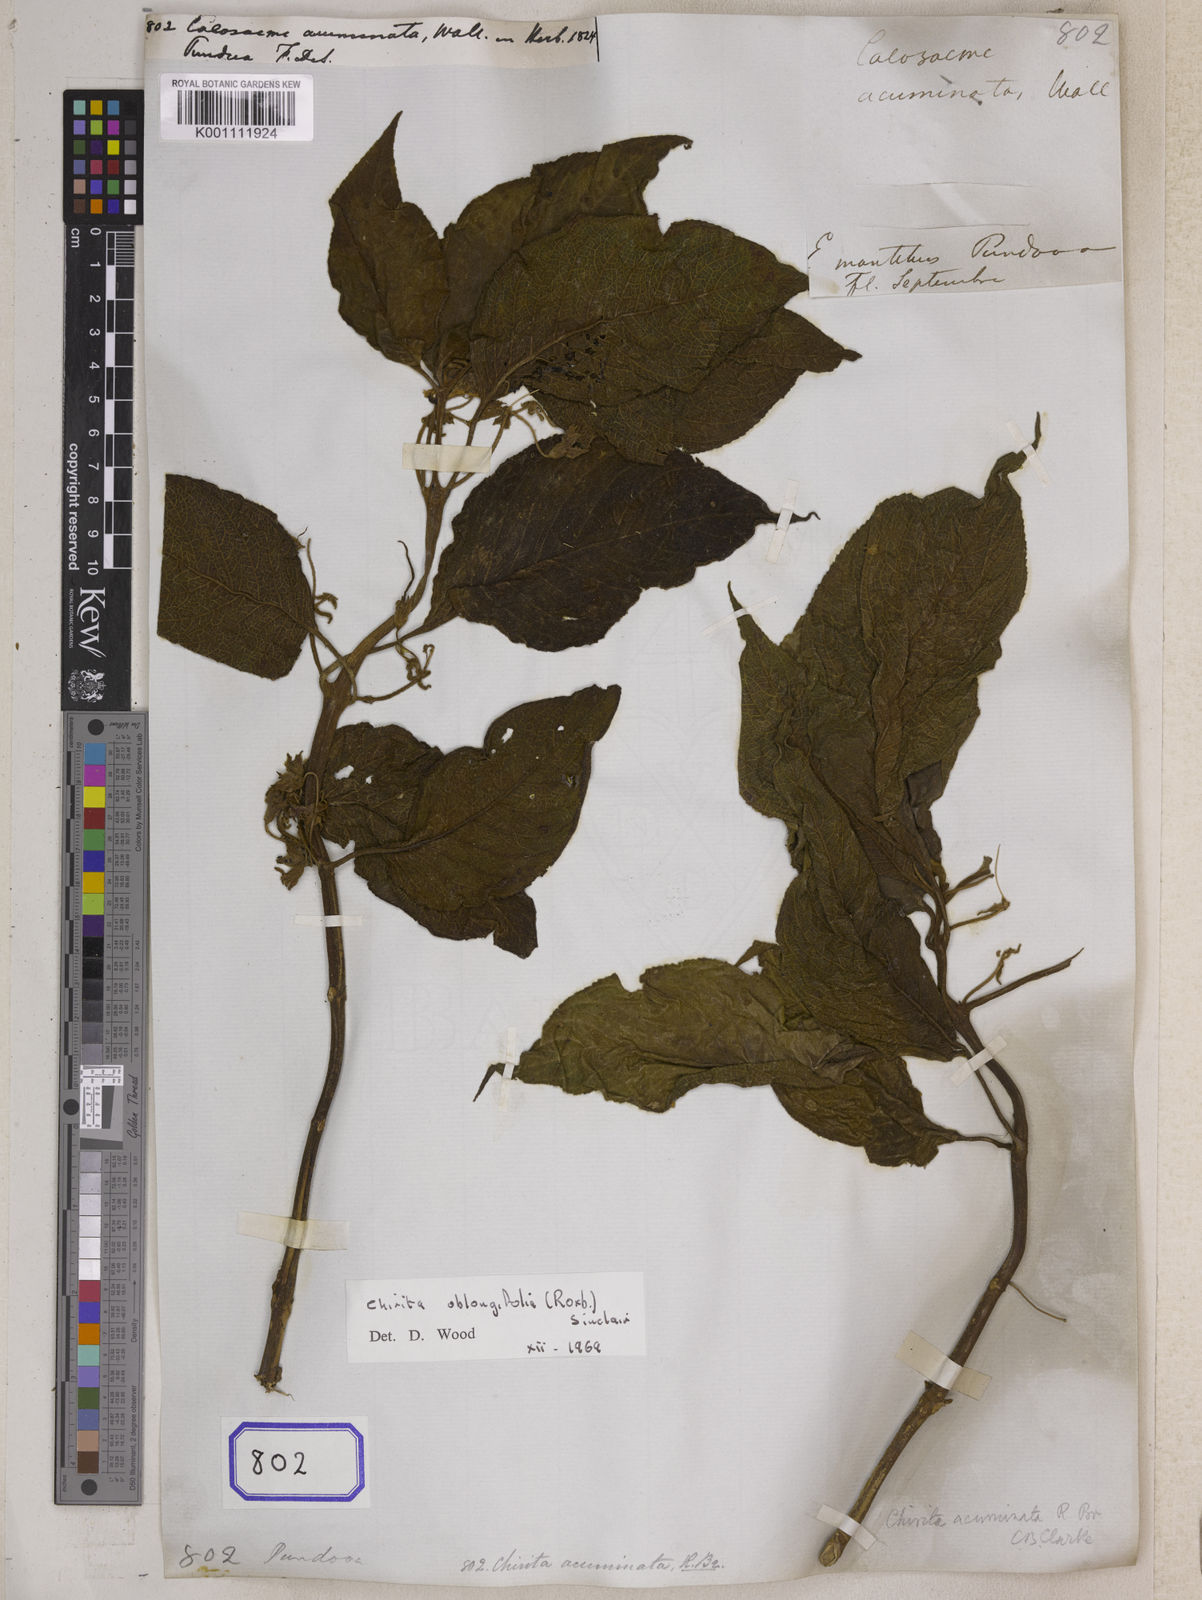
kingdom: Plantae
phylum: Tracheophyta
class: Magnoliopsida
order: Lamiales
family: Gesneriaceae
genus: Didymocarpus
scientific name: Didymocarpus acuminatus
